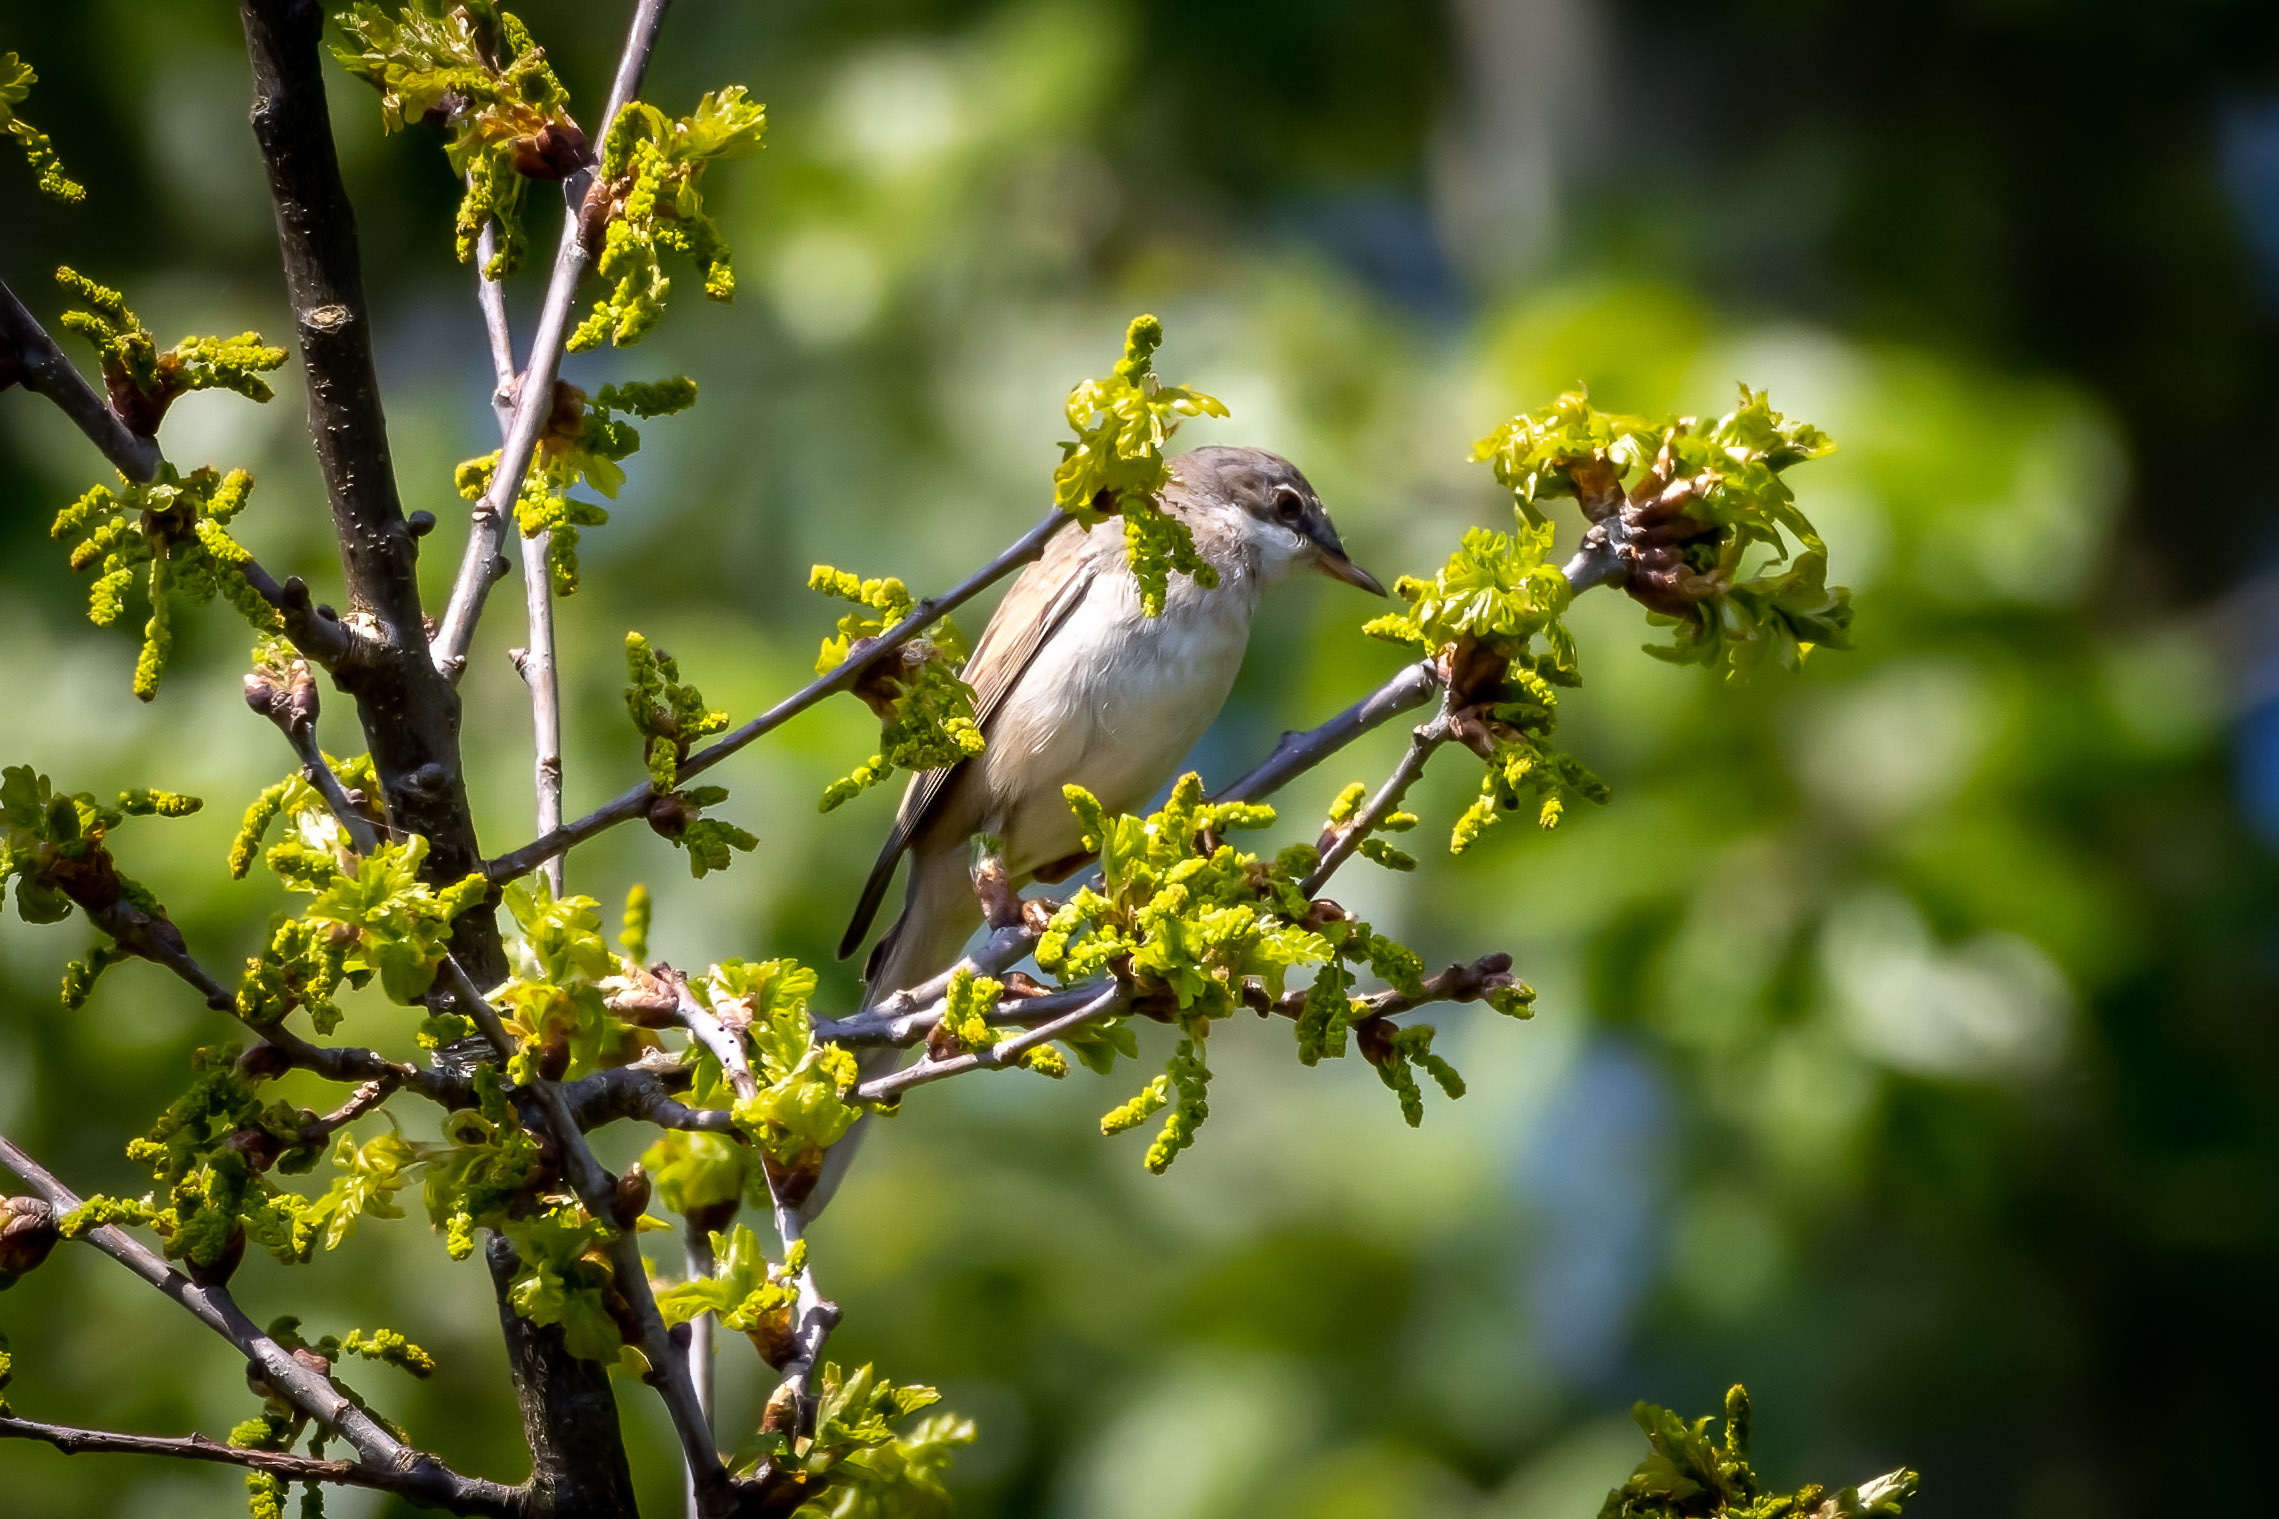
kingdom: Animalia
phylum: Chordata
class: Aves
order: Passeriformes
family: Sylviidae
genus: Sylvia
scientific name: Sylvia communis
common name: Tornsanger
